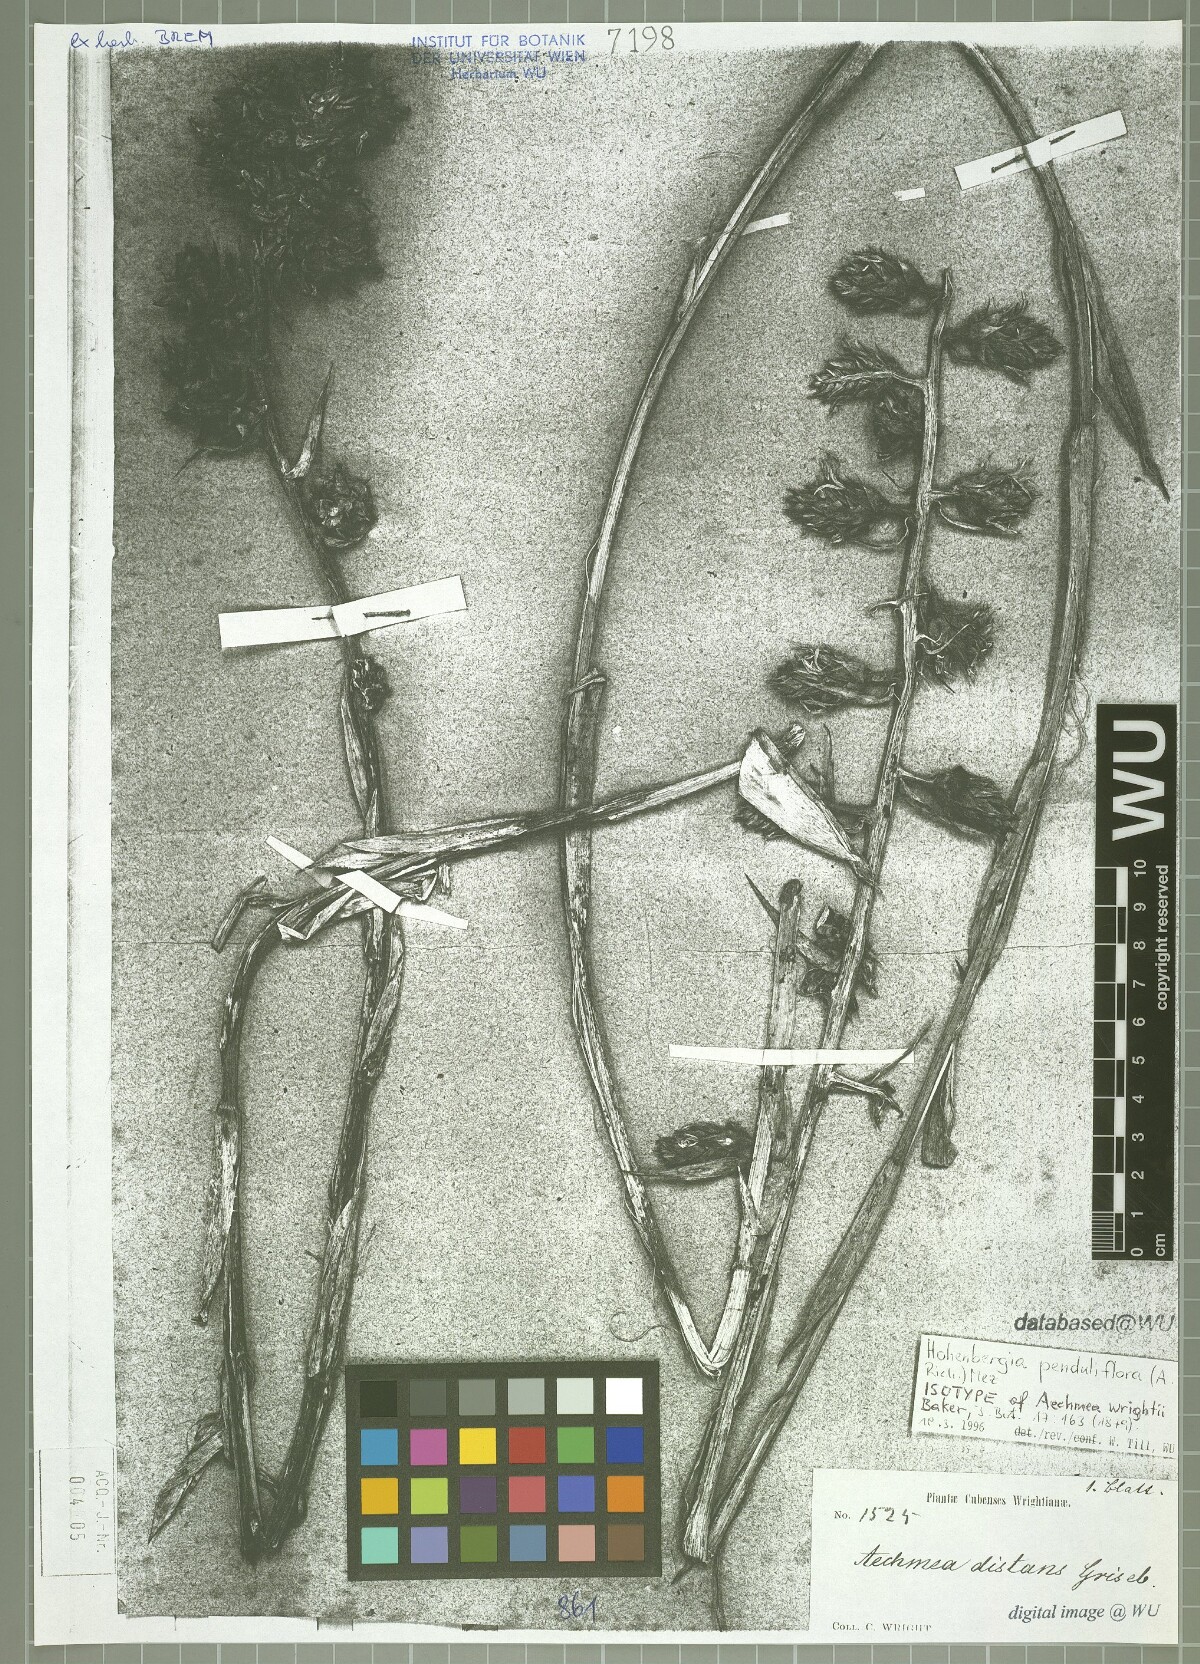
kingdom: Plantae
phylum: Tracheophyta
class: Liliopsida
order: Poales
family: Bromeliaceae
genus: Wittmackia
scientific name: Wittmackia penduliflora
